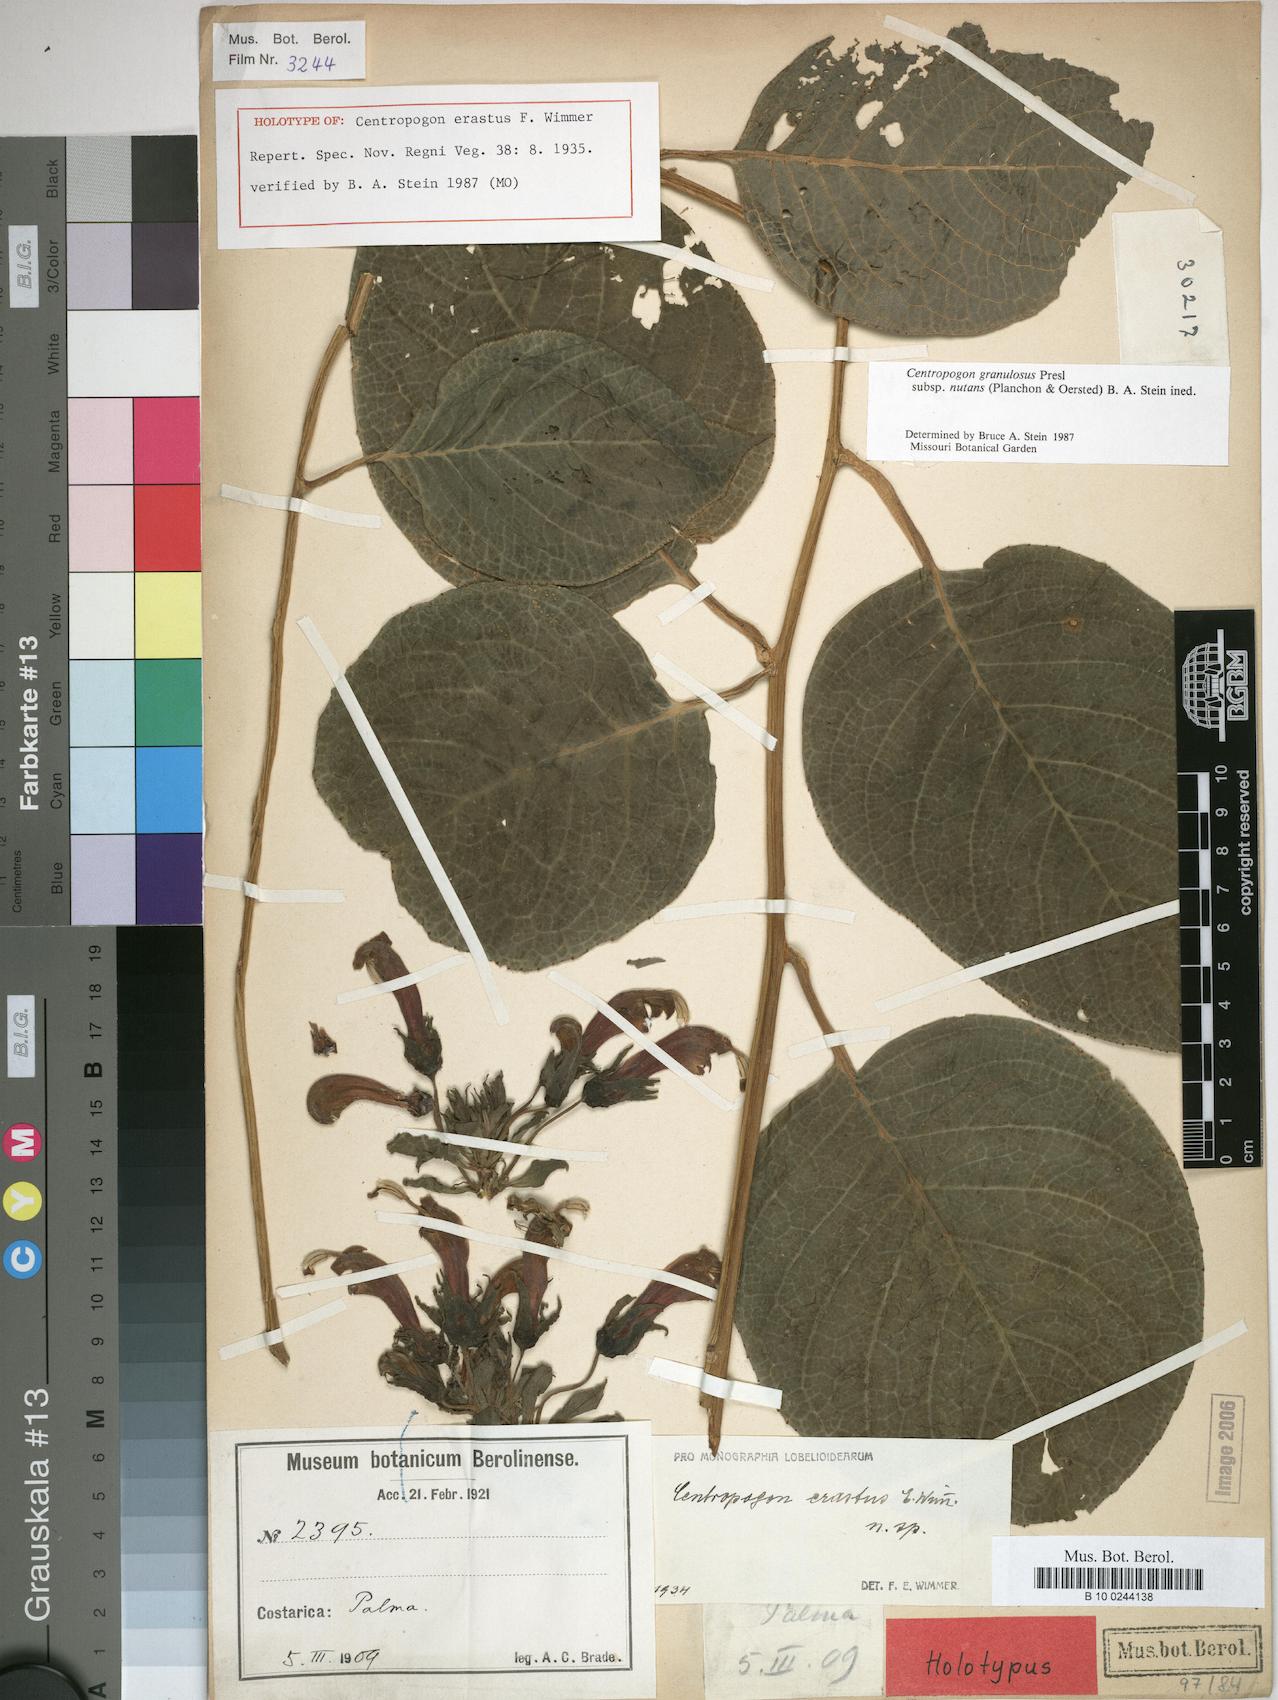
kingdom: Plantae
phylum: Tracheophyta
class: Magnoliopsida
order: Asterales
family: Campanulaceae
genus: Centropogon
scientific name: Centropogon granulosus
